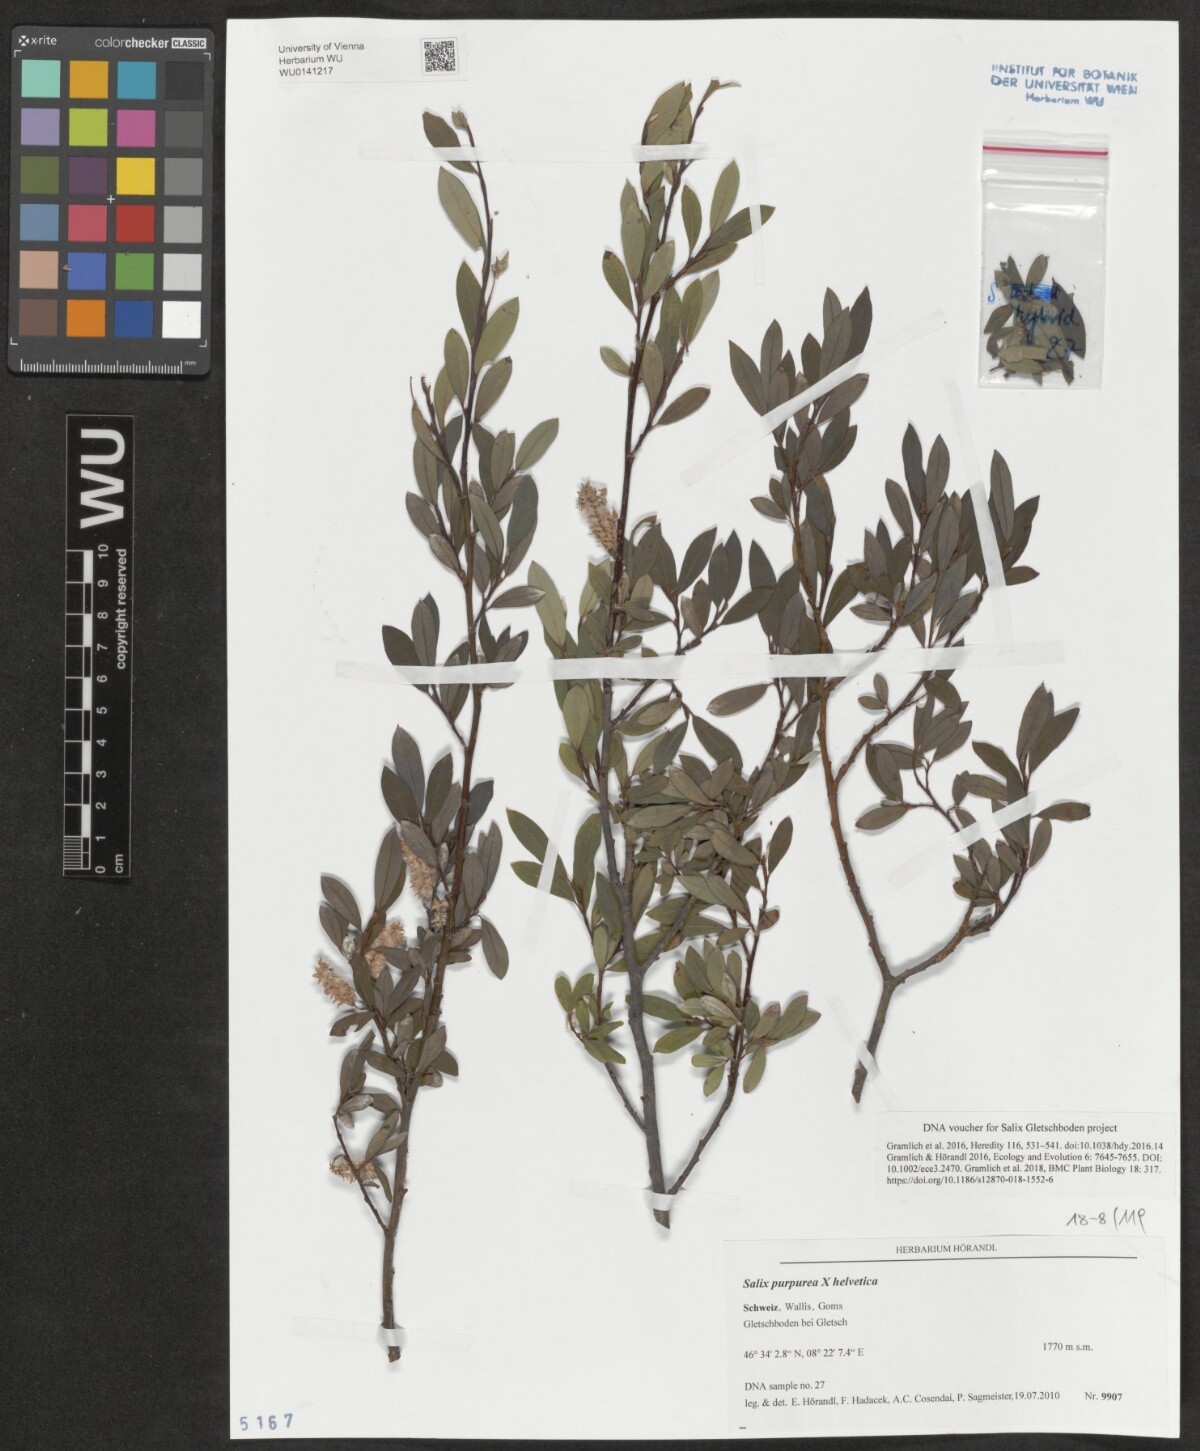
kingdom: Plantae
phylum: Tracheophyta
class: Magnoliopsida
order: Malpighiales
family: Salicaceae
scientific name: Salicaceae
